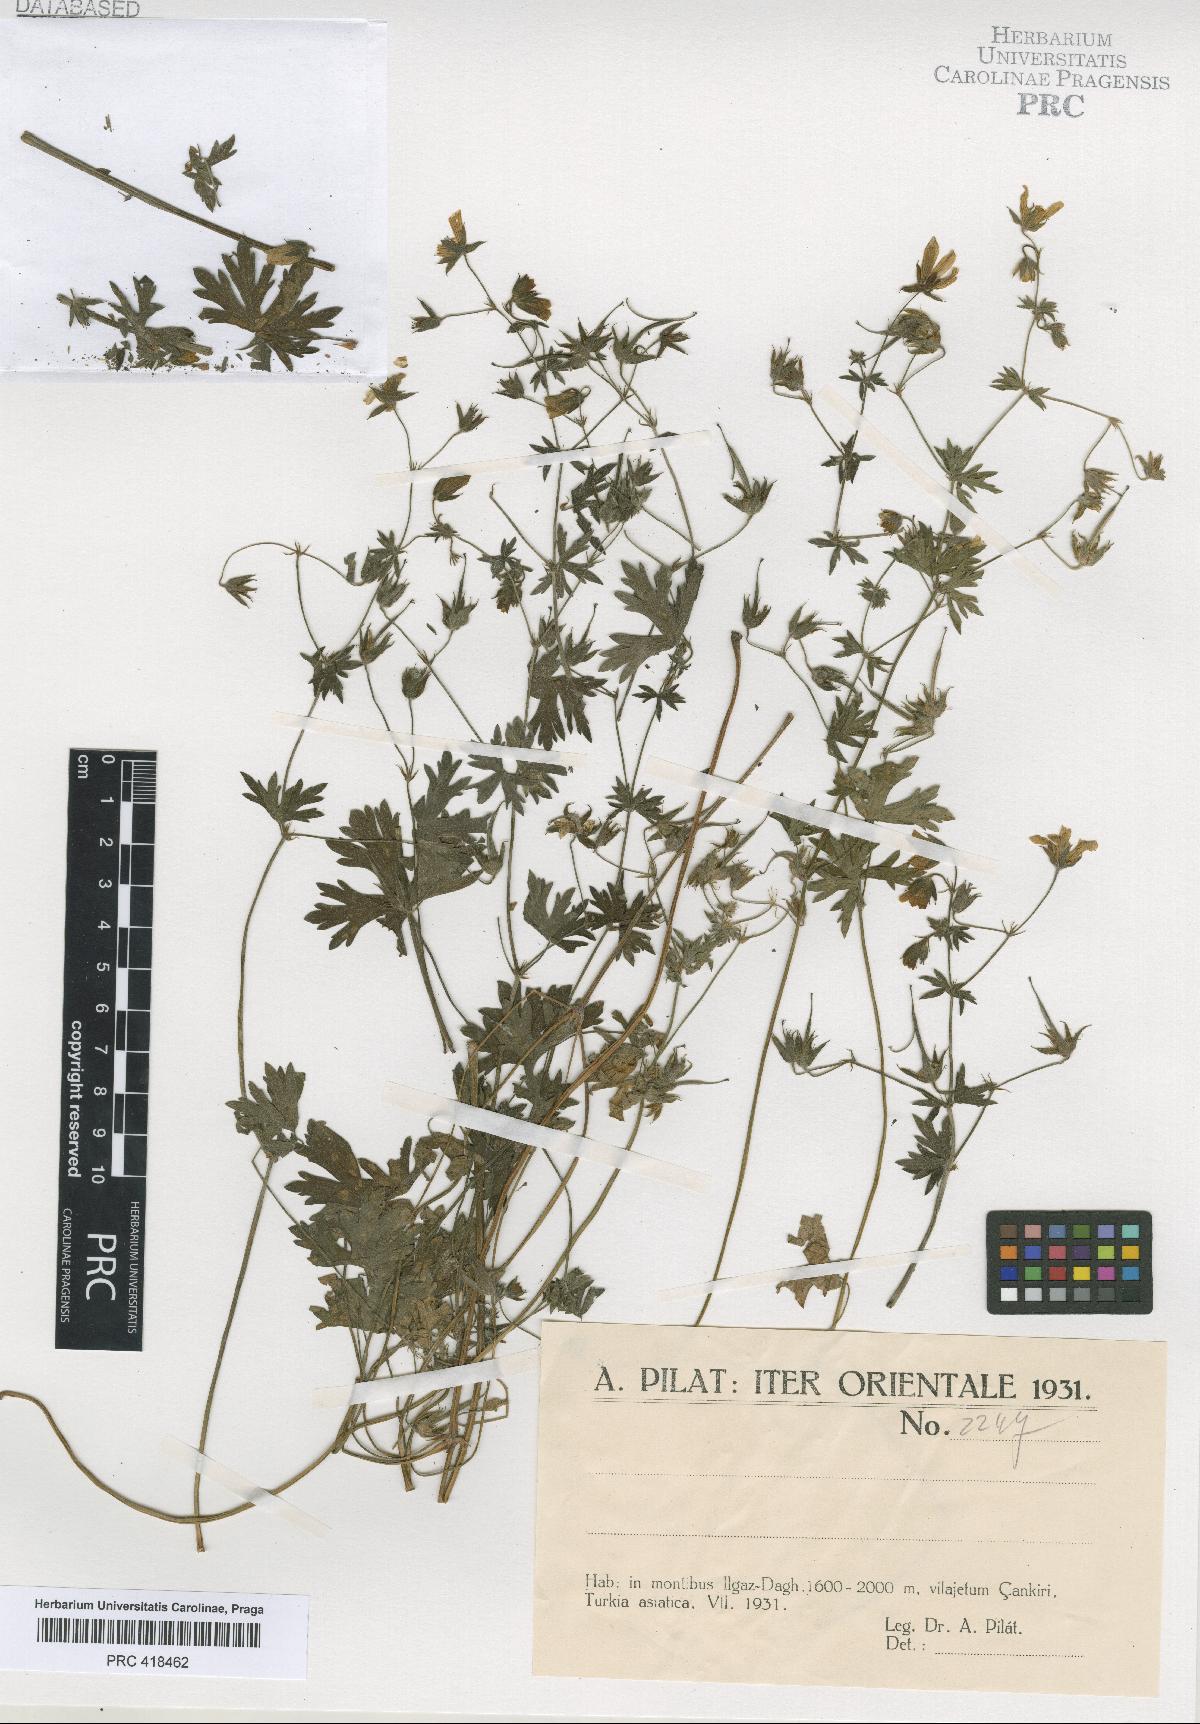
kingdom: Plantae
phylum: Tracheophyta
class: Magnoliopsida
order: Geraniales
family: Geraniaceae
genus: Geranium
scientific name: Geranium asphodeloides
